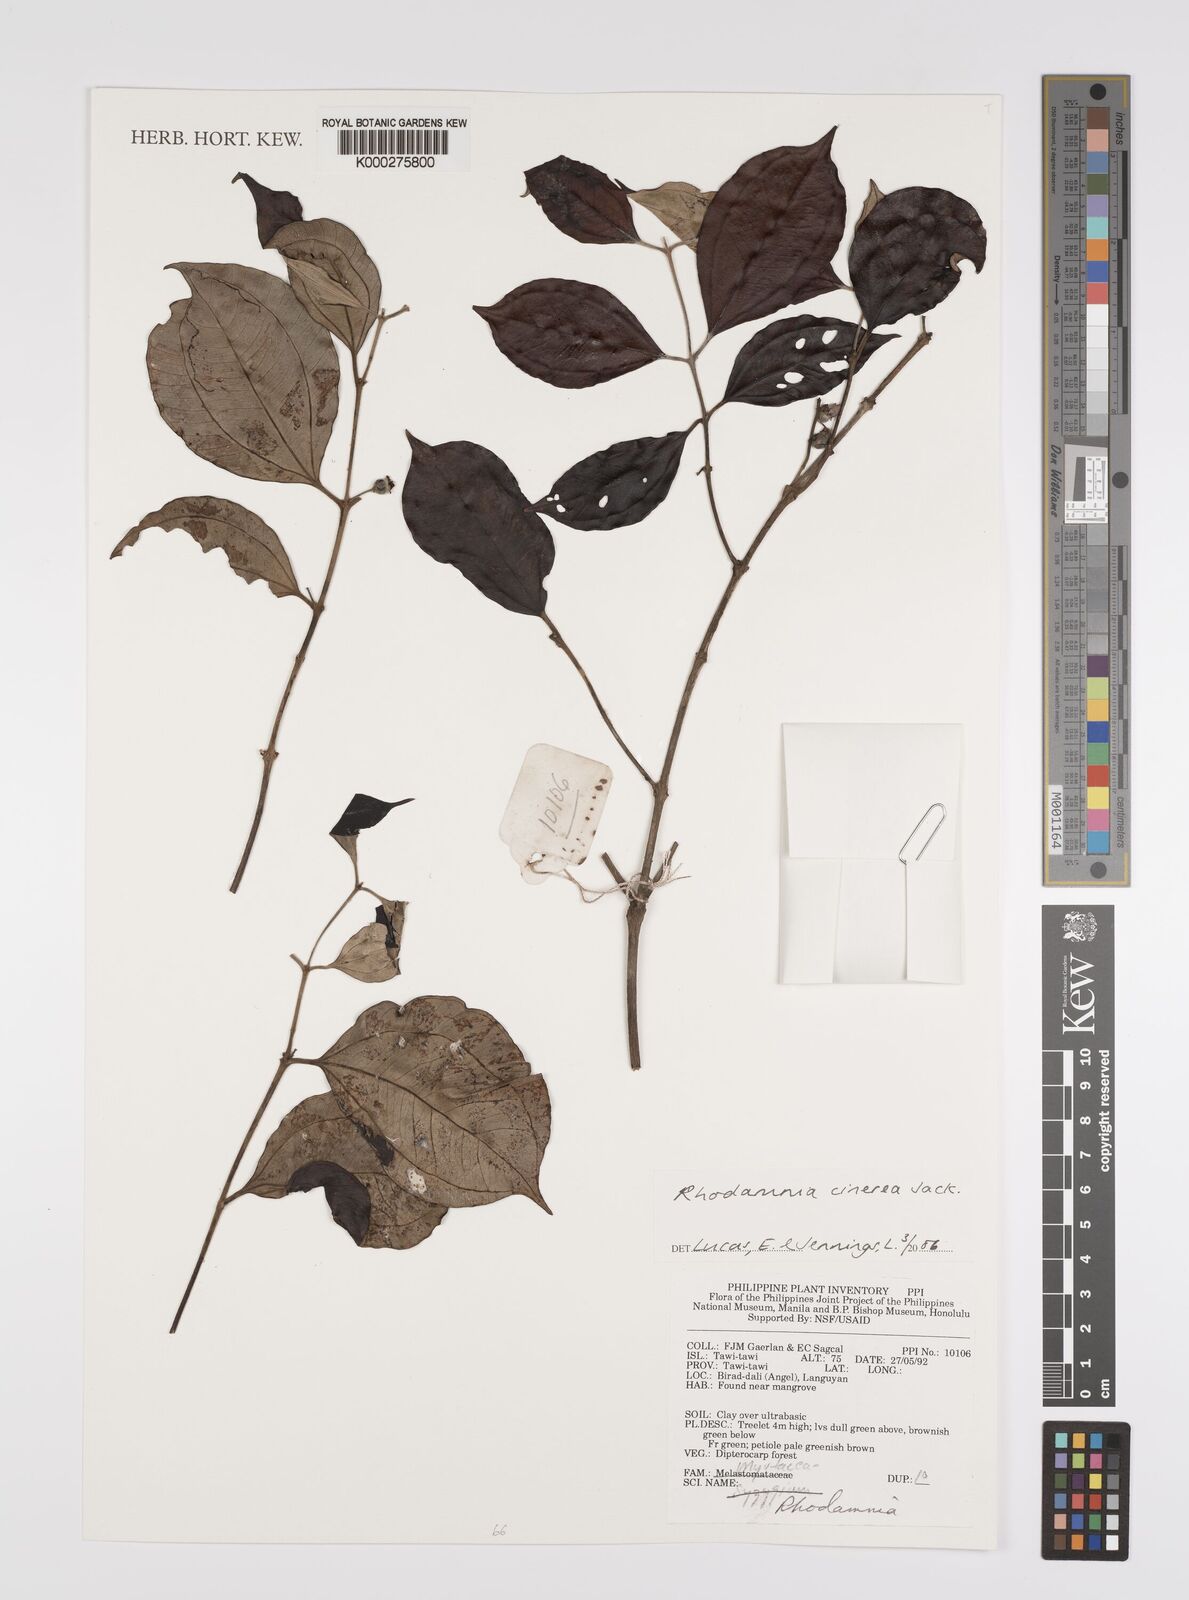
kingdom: Plantae
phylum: Tracheophyta
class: Magnoliopsida
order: Myrtales
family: Myrtaceae
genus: Rhodamnia
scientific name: Rhodamnia cinerea
